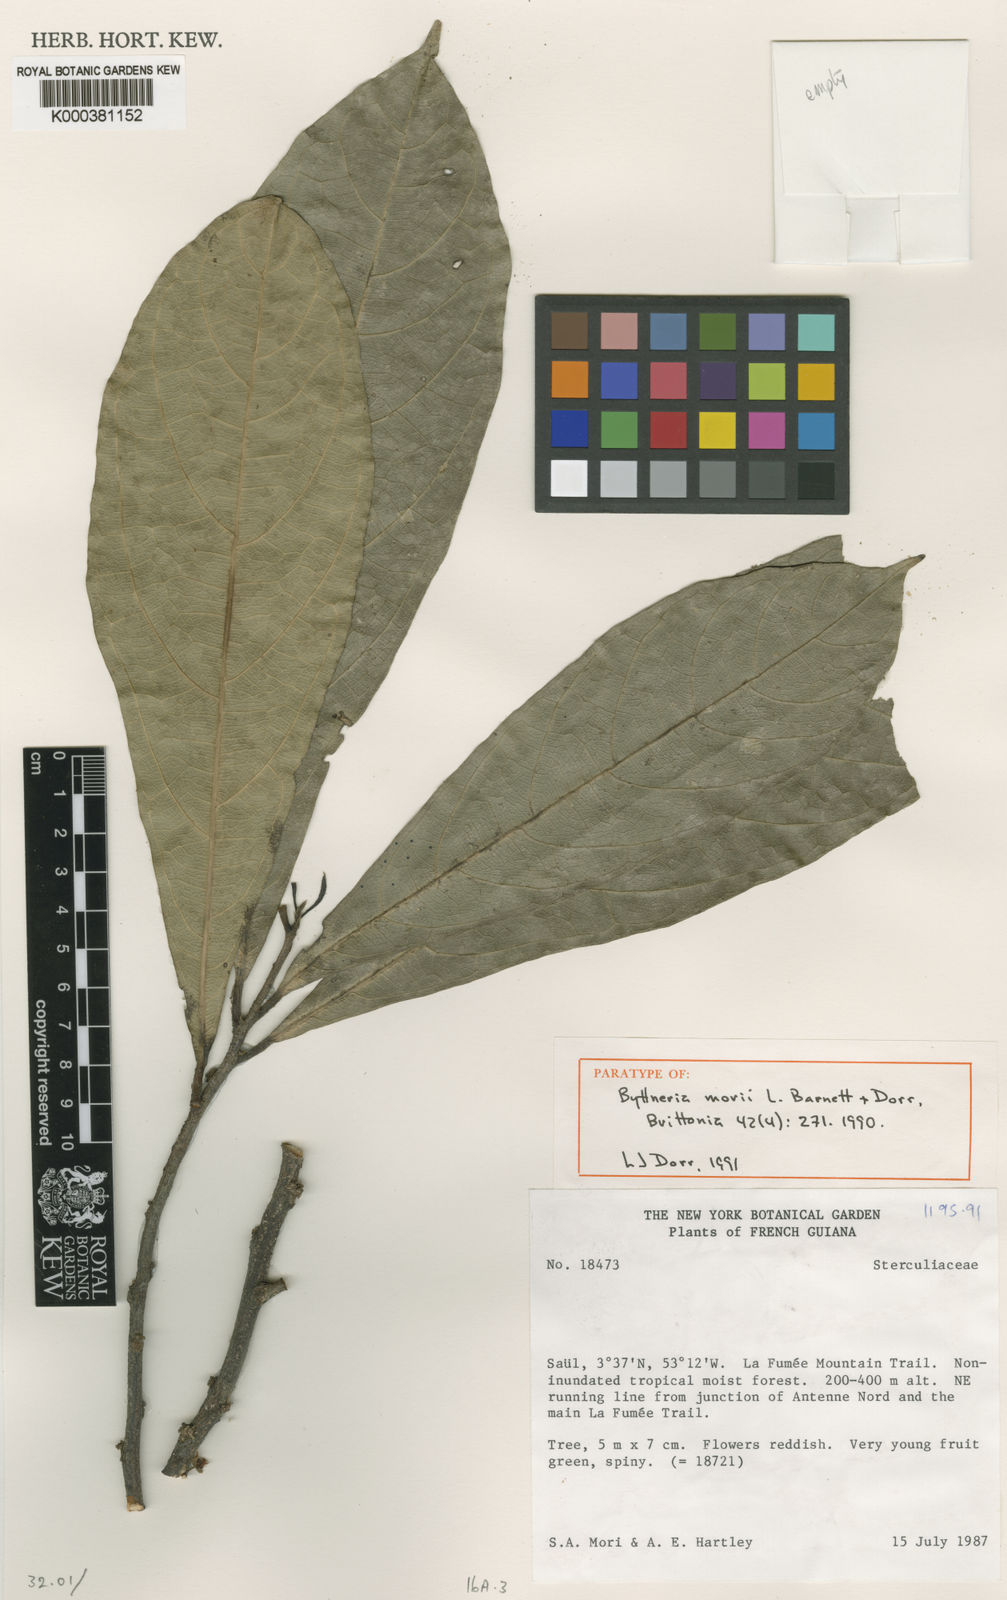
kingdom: Plantae
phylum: Tracheophyta
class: Magnoliopsida
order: Malvales
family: Malvaceae
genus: Byttneria
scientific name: Byttneria morii
